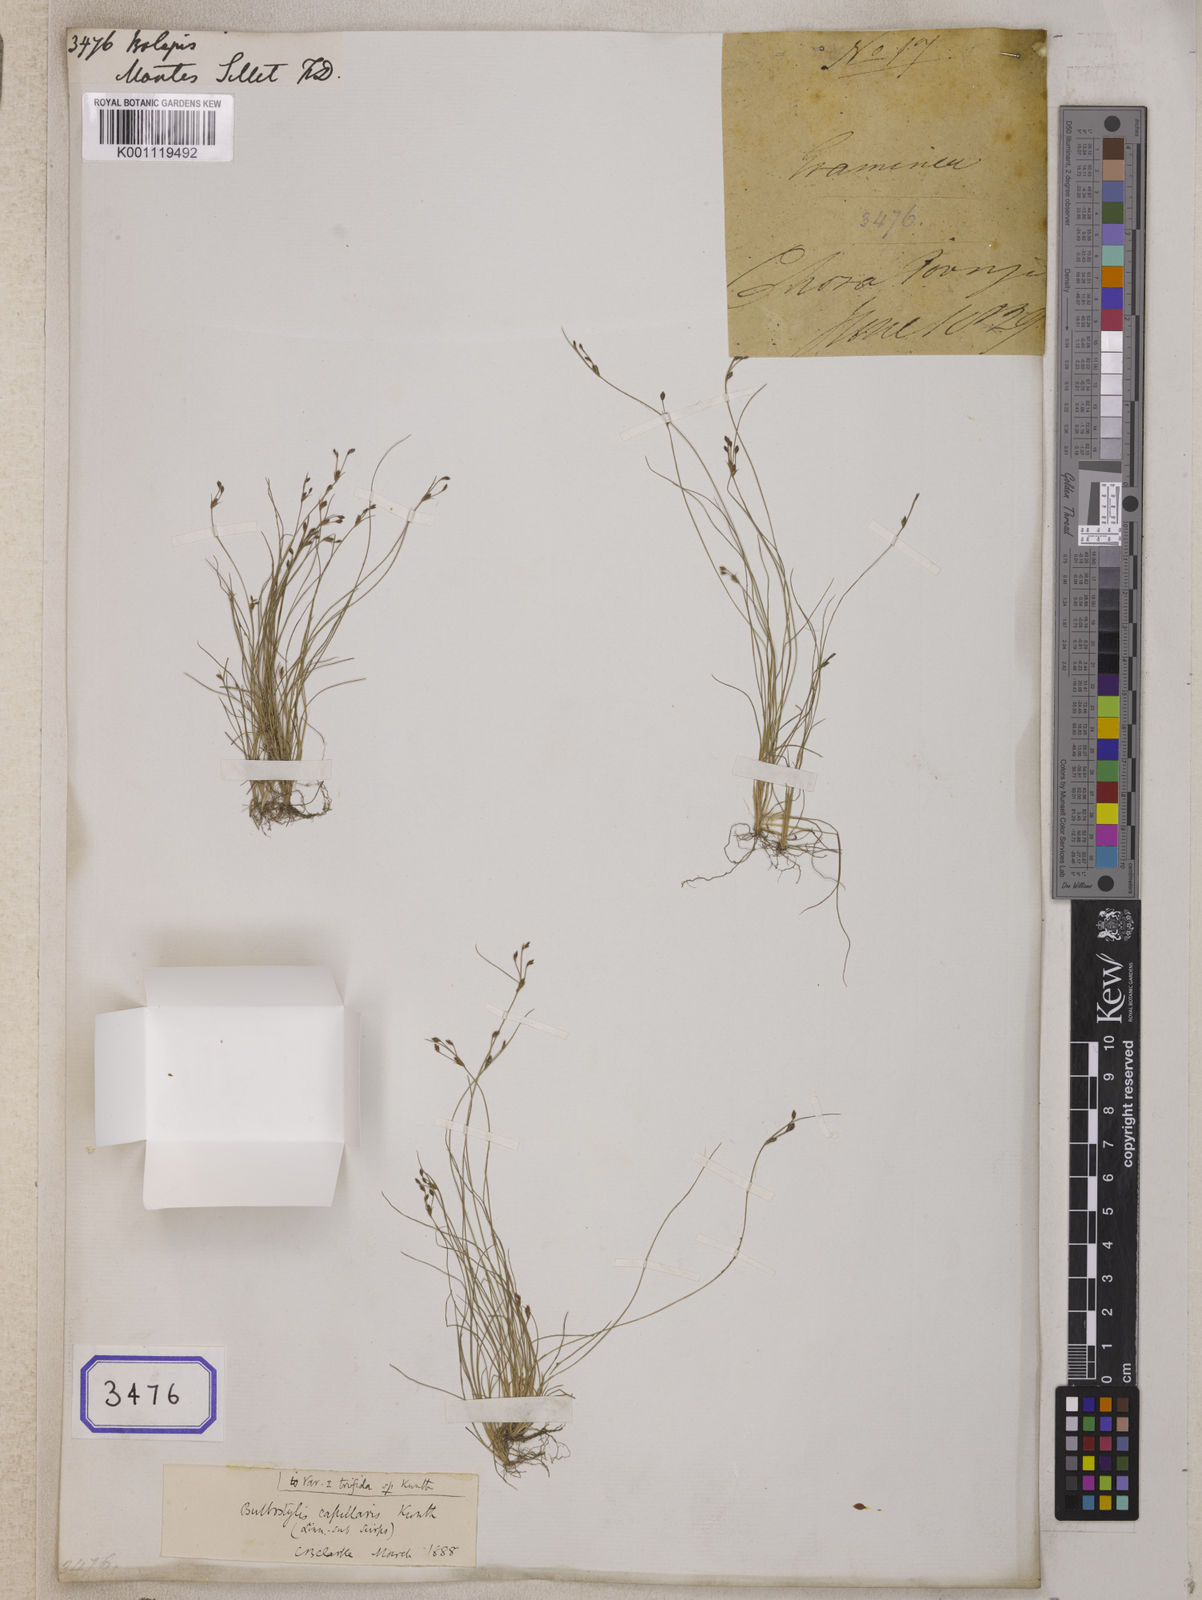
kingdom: Plantae
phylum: Tracheophyta
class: Liliopsida
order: Poales
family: Cyperaceae
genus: Isolepis
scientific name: Isolepis
